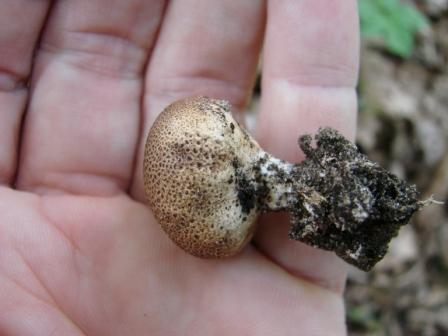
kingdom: Fungi
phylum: Basidiomycota
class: Agaricomycetes
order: Boletales
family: Sclerodermataceae
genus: Scleroderma
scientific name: Scleroderma verrucosum
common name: stilket bruskbold
